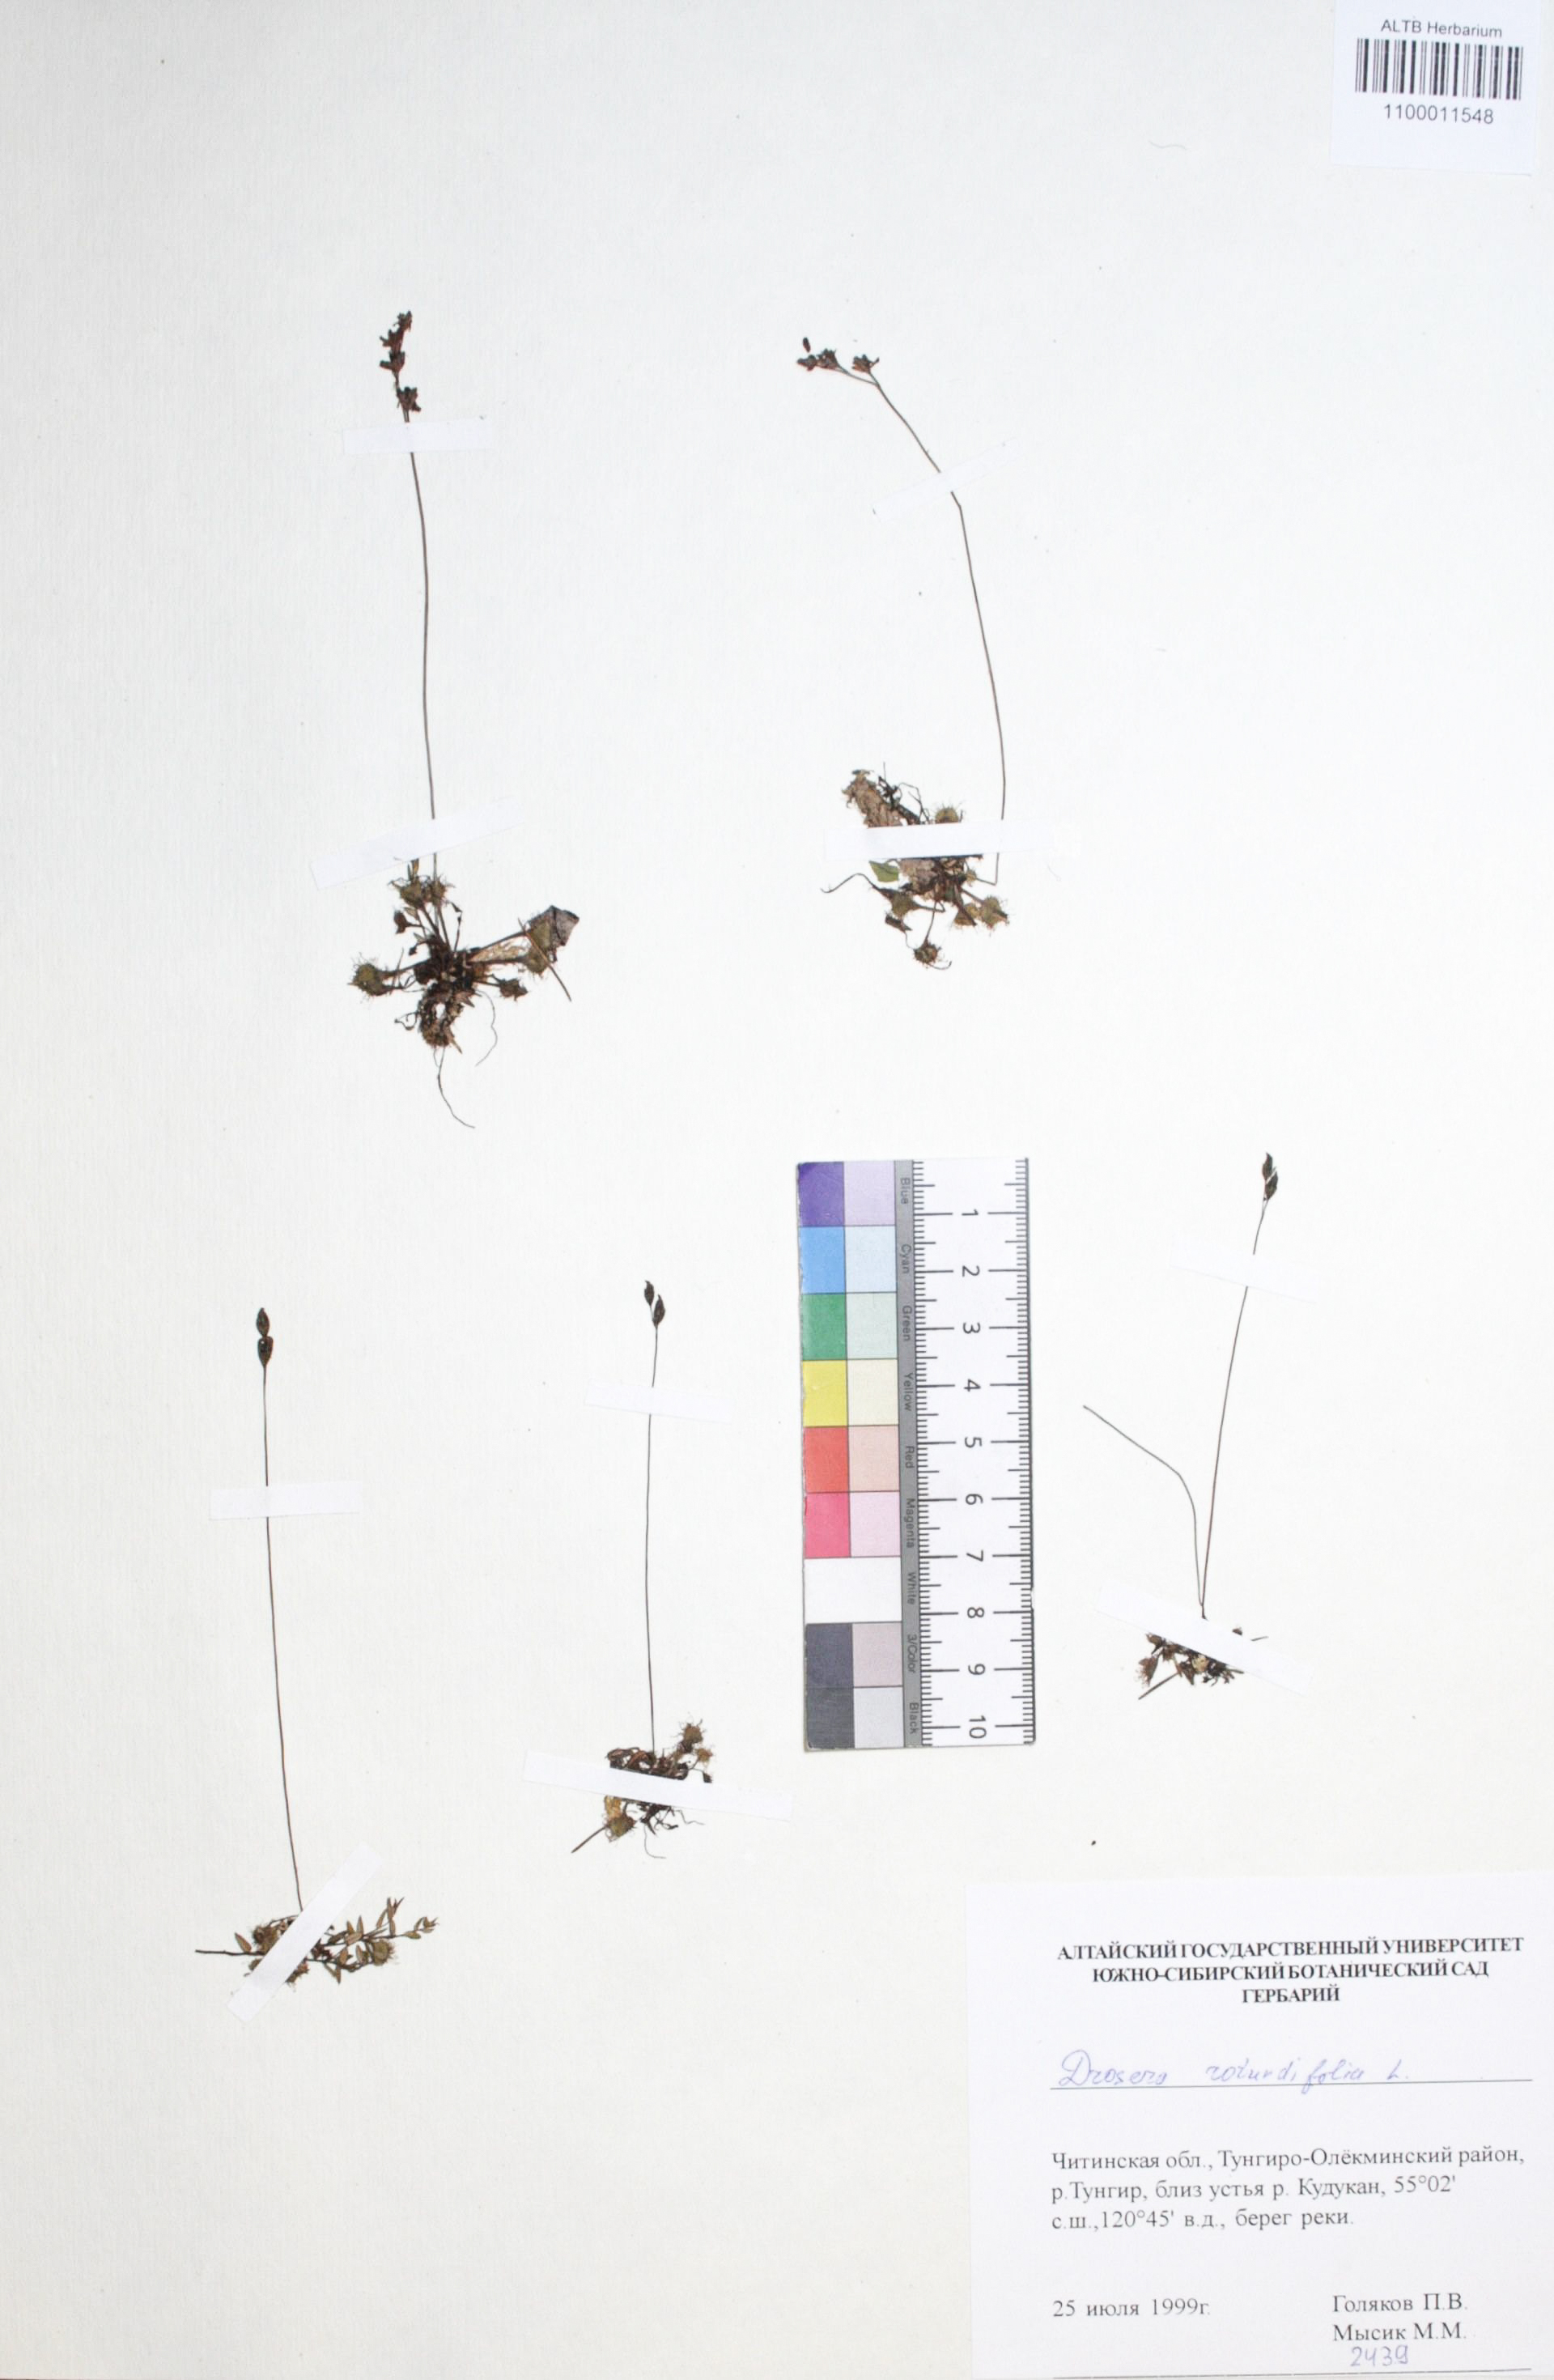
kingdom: Plantae
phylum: Tracheophyta
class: Magnoliopsida
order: Caryophyllales
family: Droseraceae
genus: Drosera
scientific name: Drosera rotundifolia
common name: Round-leaved sundew
